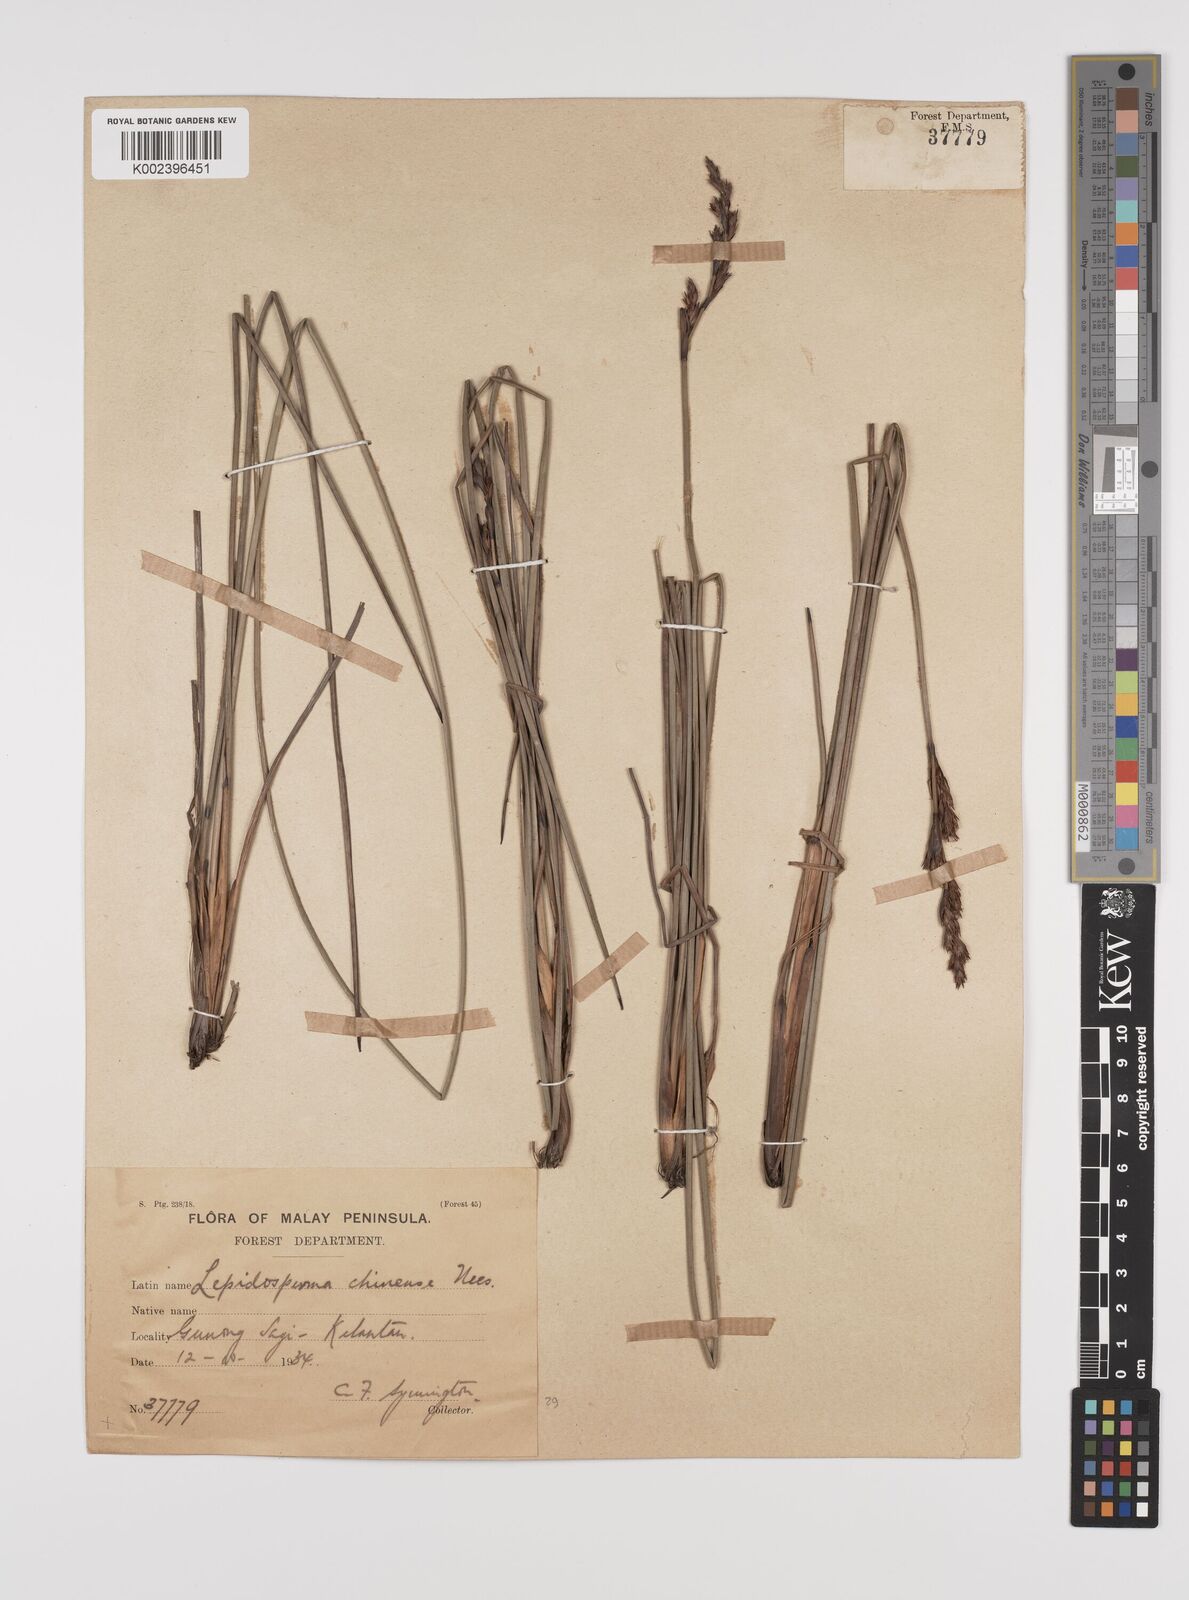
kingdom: Plantae
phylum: Tracheophyta
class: Liliopsida
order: Poales
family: Cyperaceae
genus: Lepidosperma
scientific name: Lepidosperma chinense
